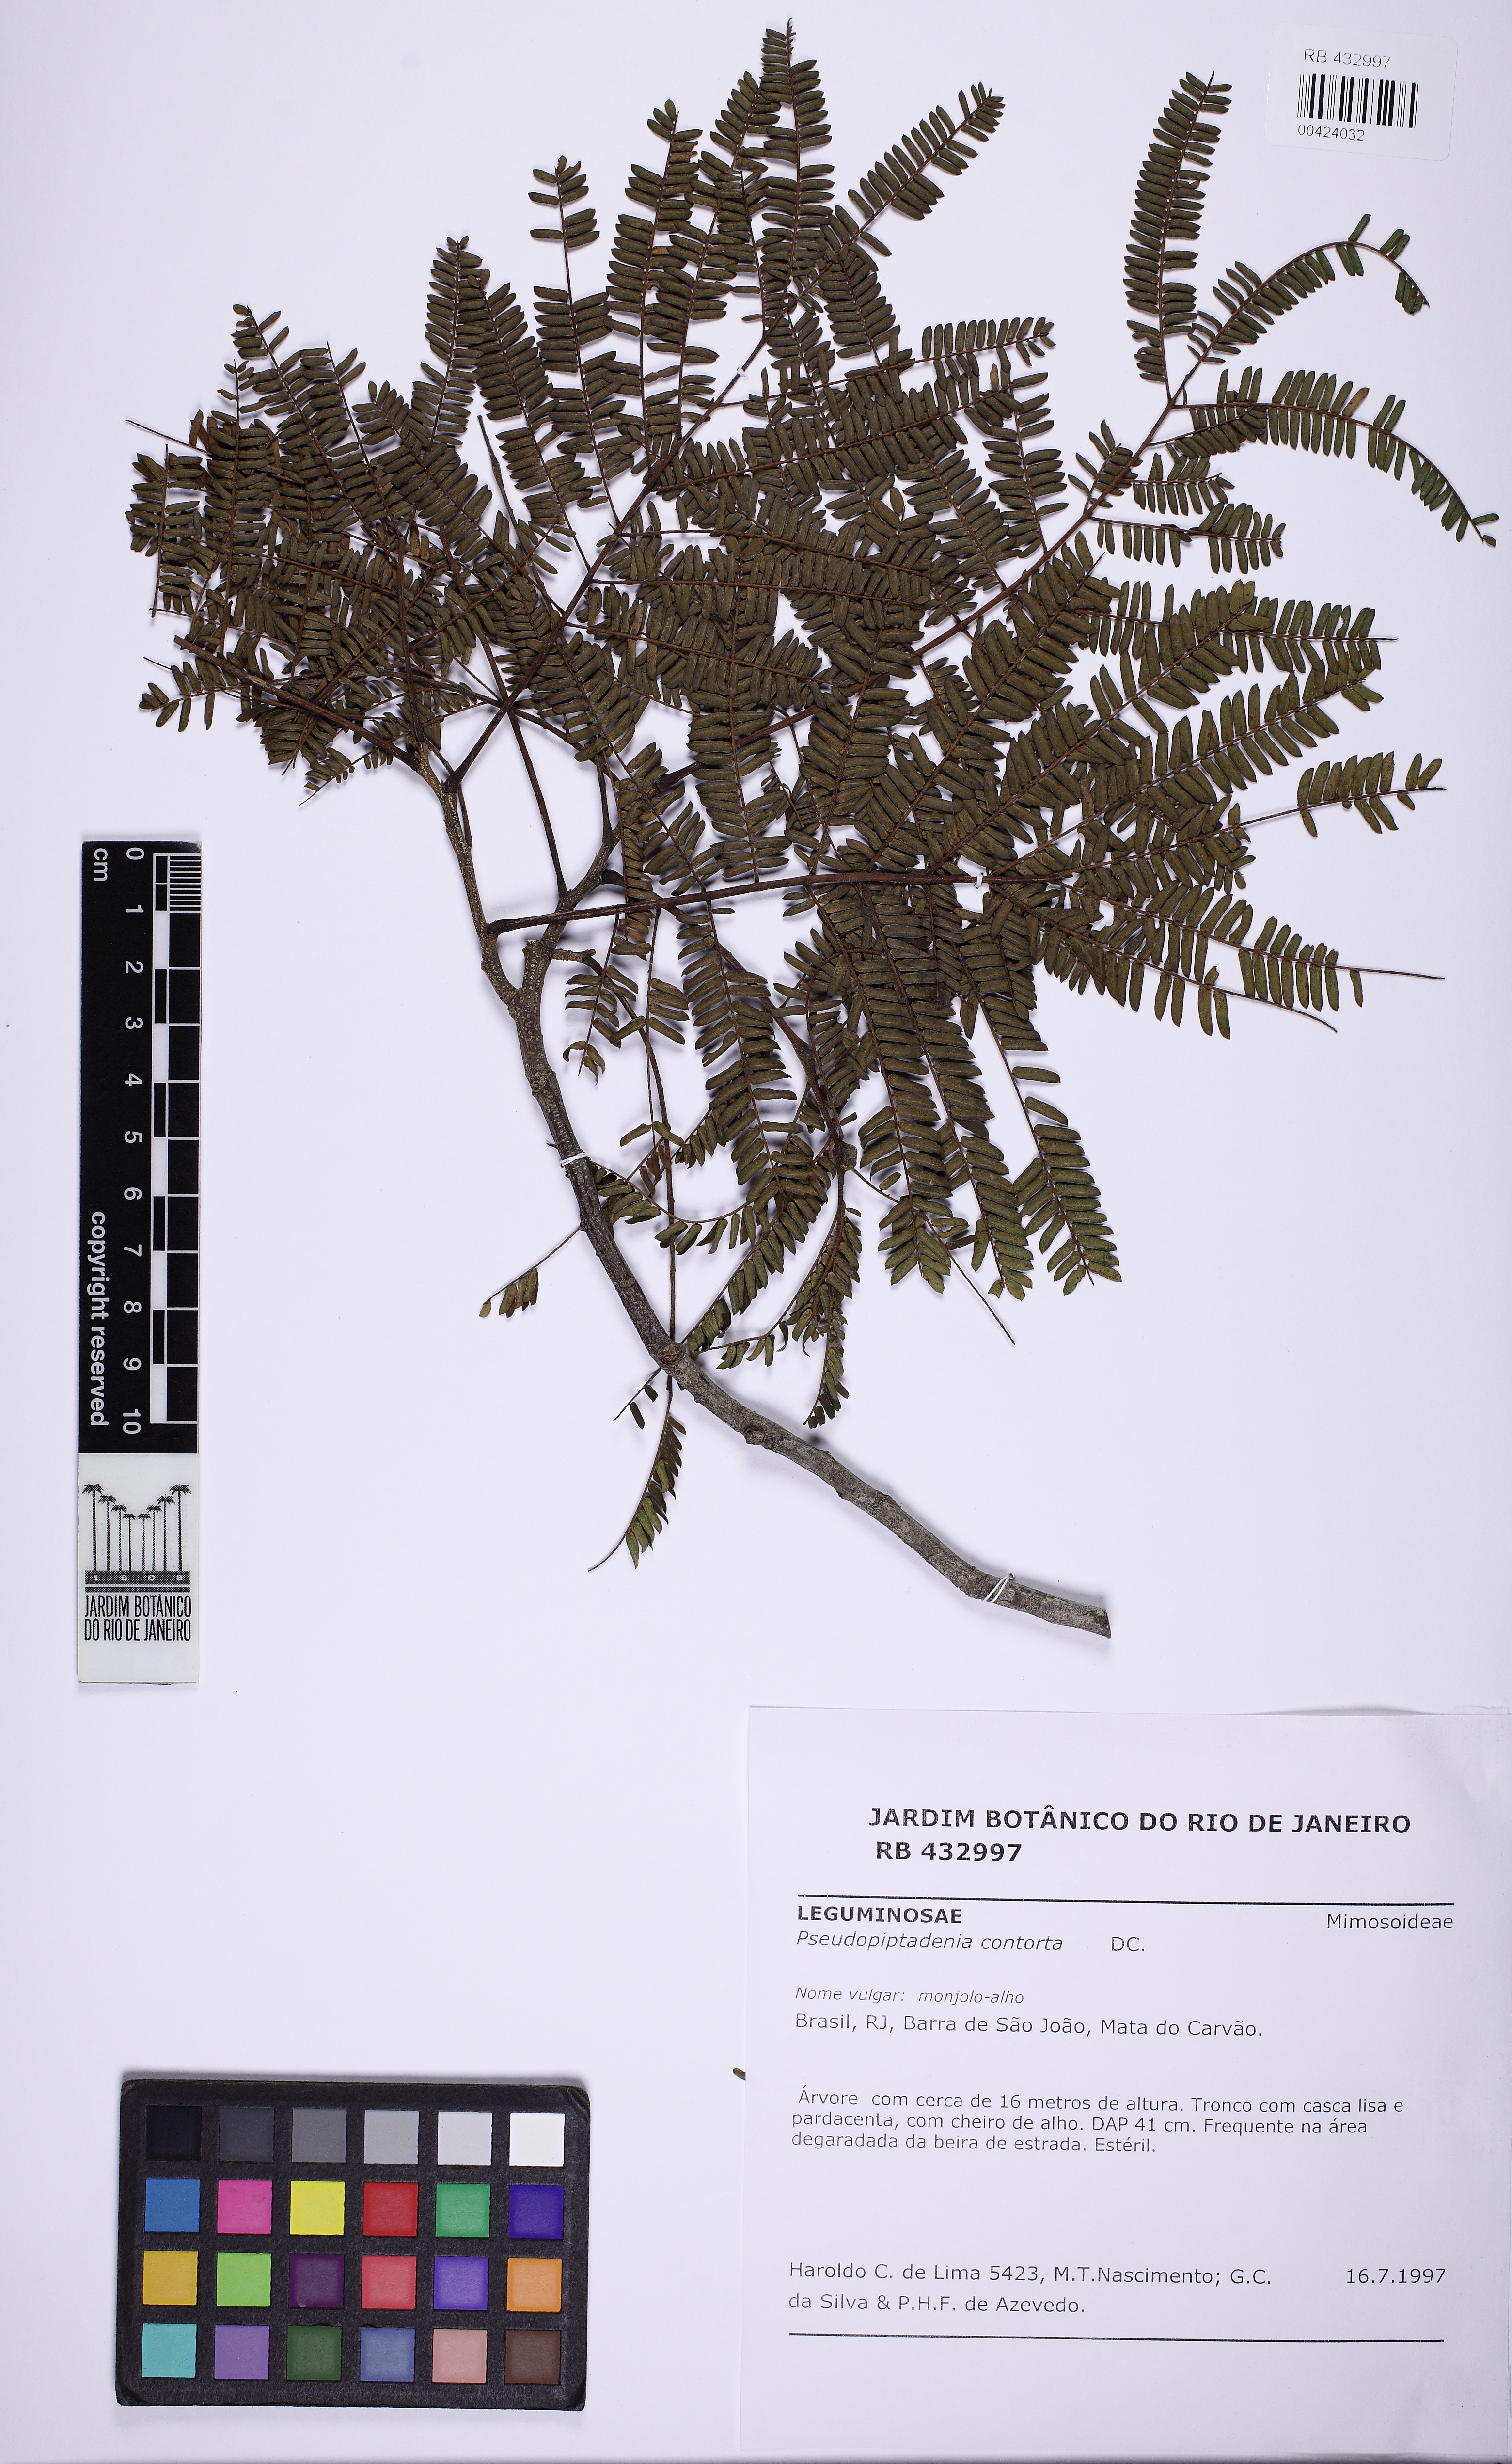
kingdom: Plantae
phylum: Tracheophyta
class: Magnoliopsida
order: Fabales
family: Fabaceae
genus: Pseudopiptadenia
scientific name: Pseudopiptadenia contorta
